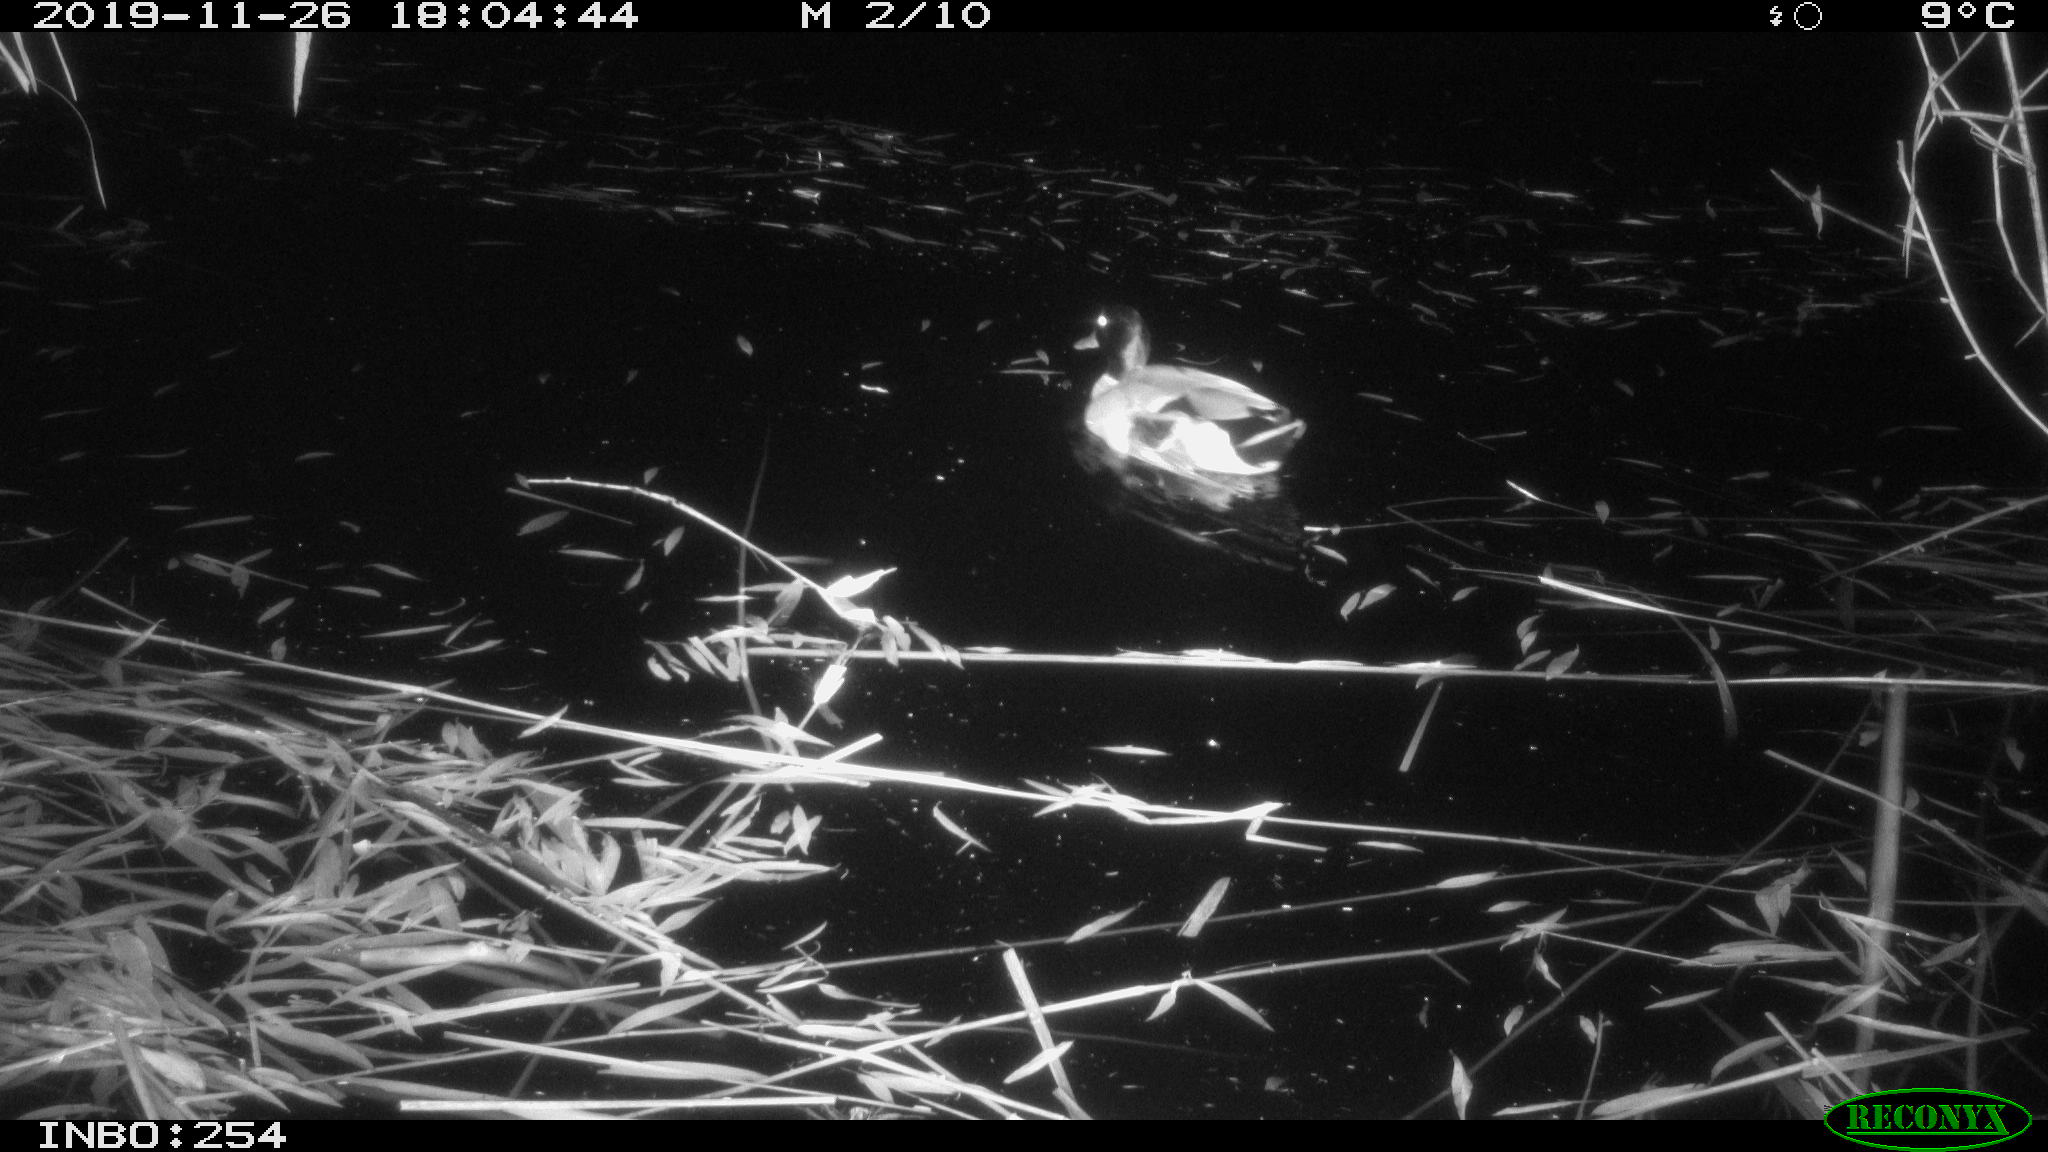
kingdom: Animalia
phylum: Chordata
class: Aves
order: Anseriformes
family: Anatidae
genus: Anas
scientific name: Anas platyrhynchos
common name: Mallard
